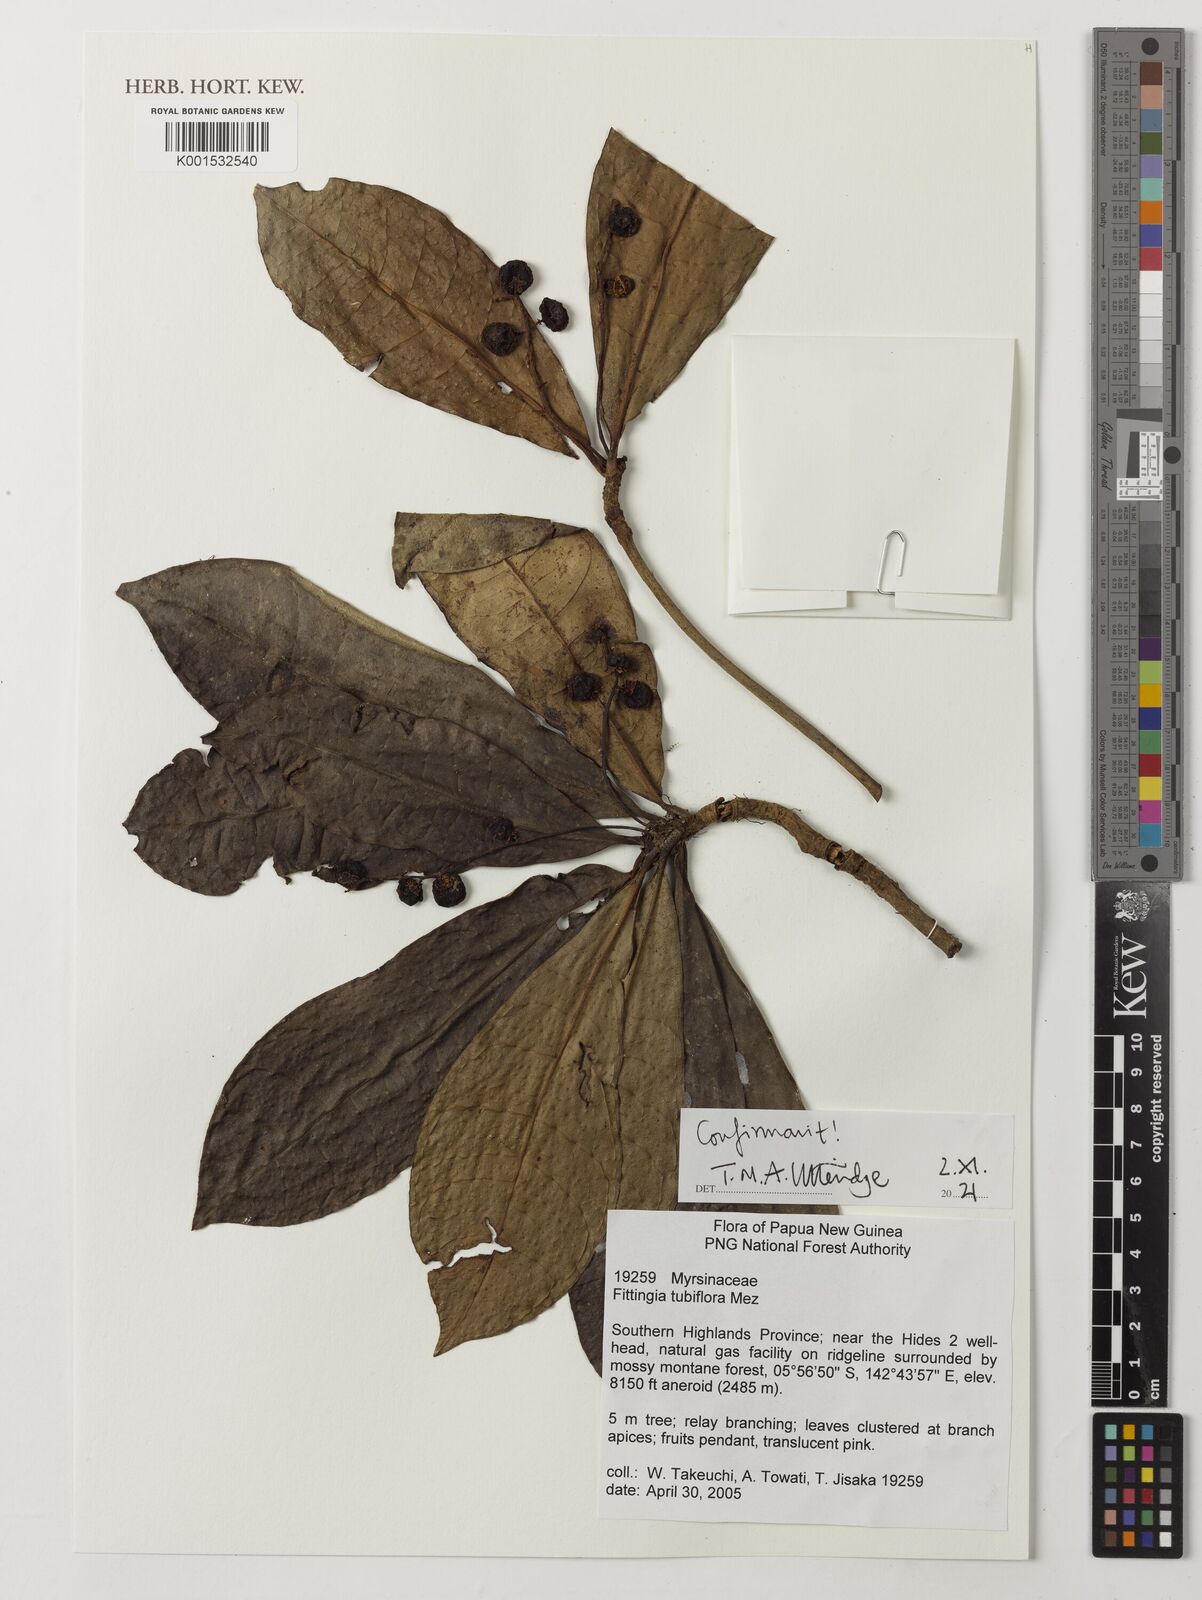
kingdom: Plantae
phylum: Tracheophyta
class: Magnoliopsida
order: Ericales
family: Primulaceae
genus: Fittingia
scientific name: Fittingia tubiflora
